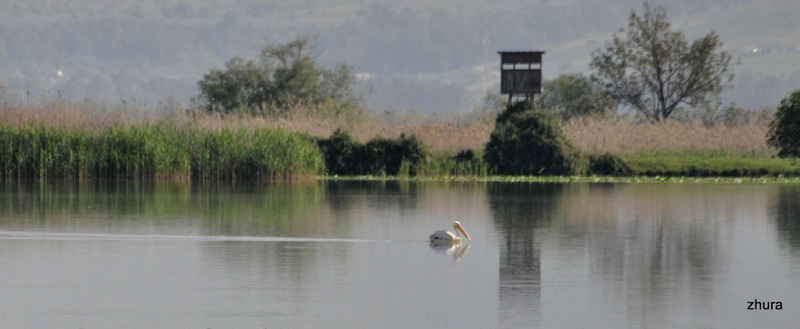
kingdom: Animalia
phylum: Chordata
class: Aves
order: Pelecaniformes
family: Pelecanidae
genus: Pelecanus
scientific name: Pelecanus onocrotalus
